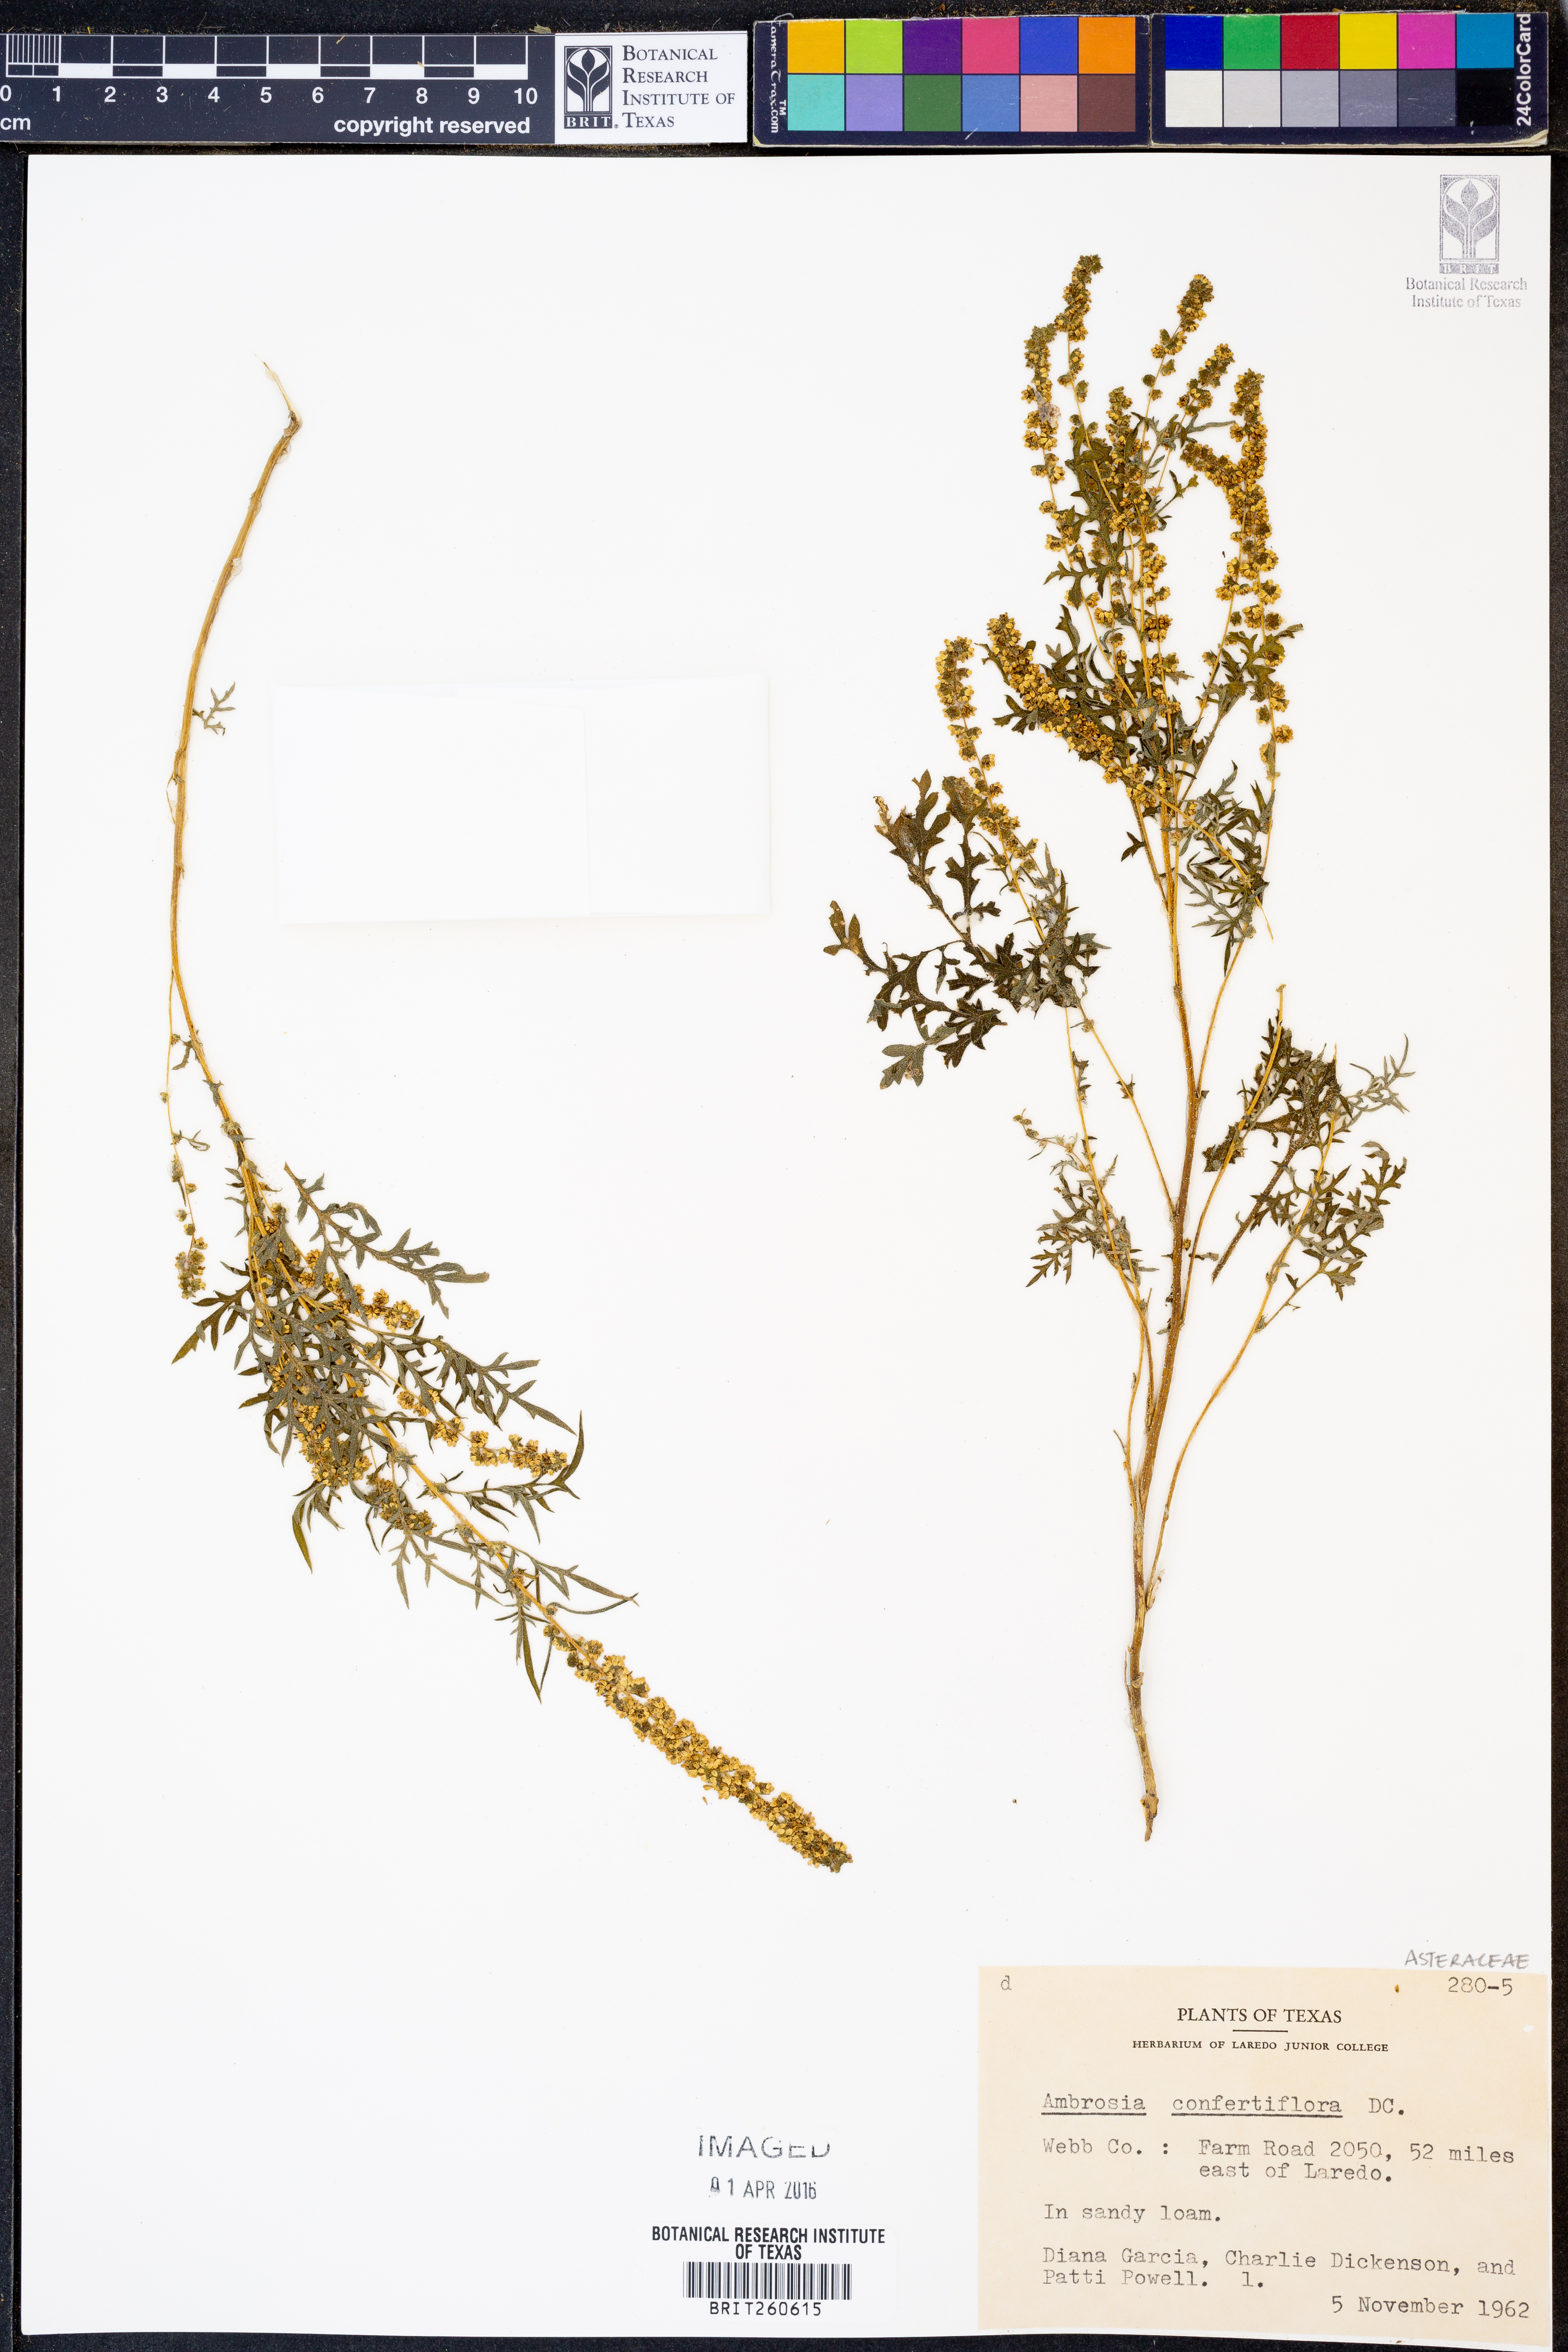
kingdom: Plantae
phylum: Tracheophyta
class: Magnoliopsida
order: Asterales
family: Asteraceae
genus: Ambrosia
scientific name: Ambrosia confertiflora
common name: Bur ragweed
